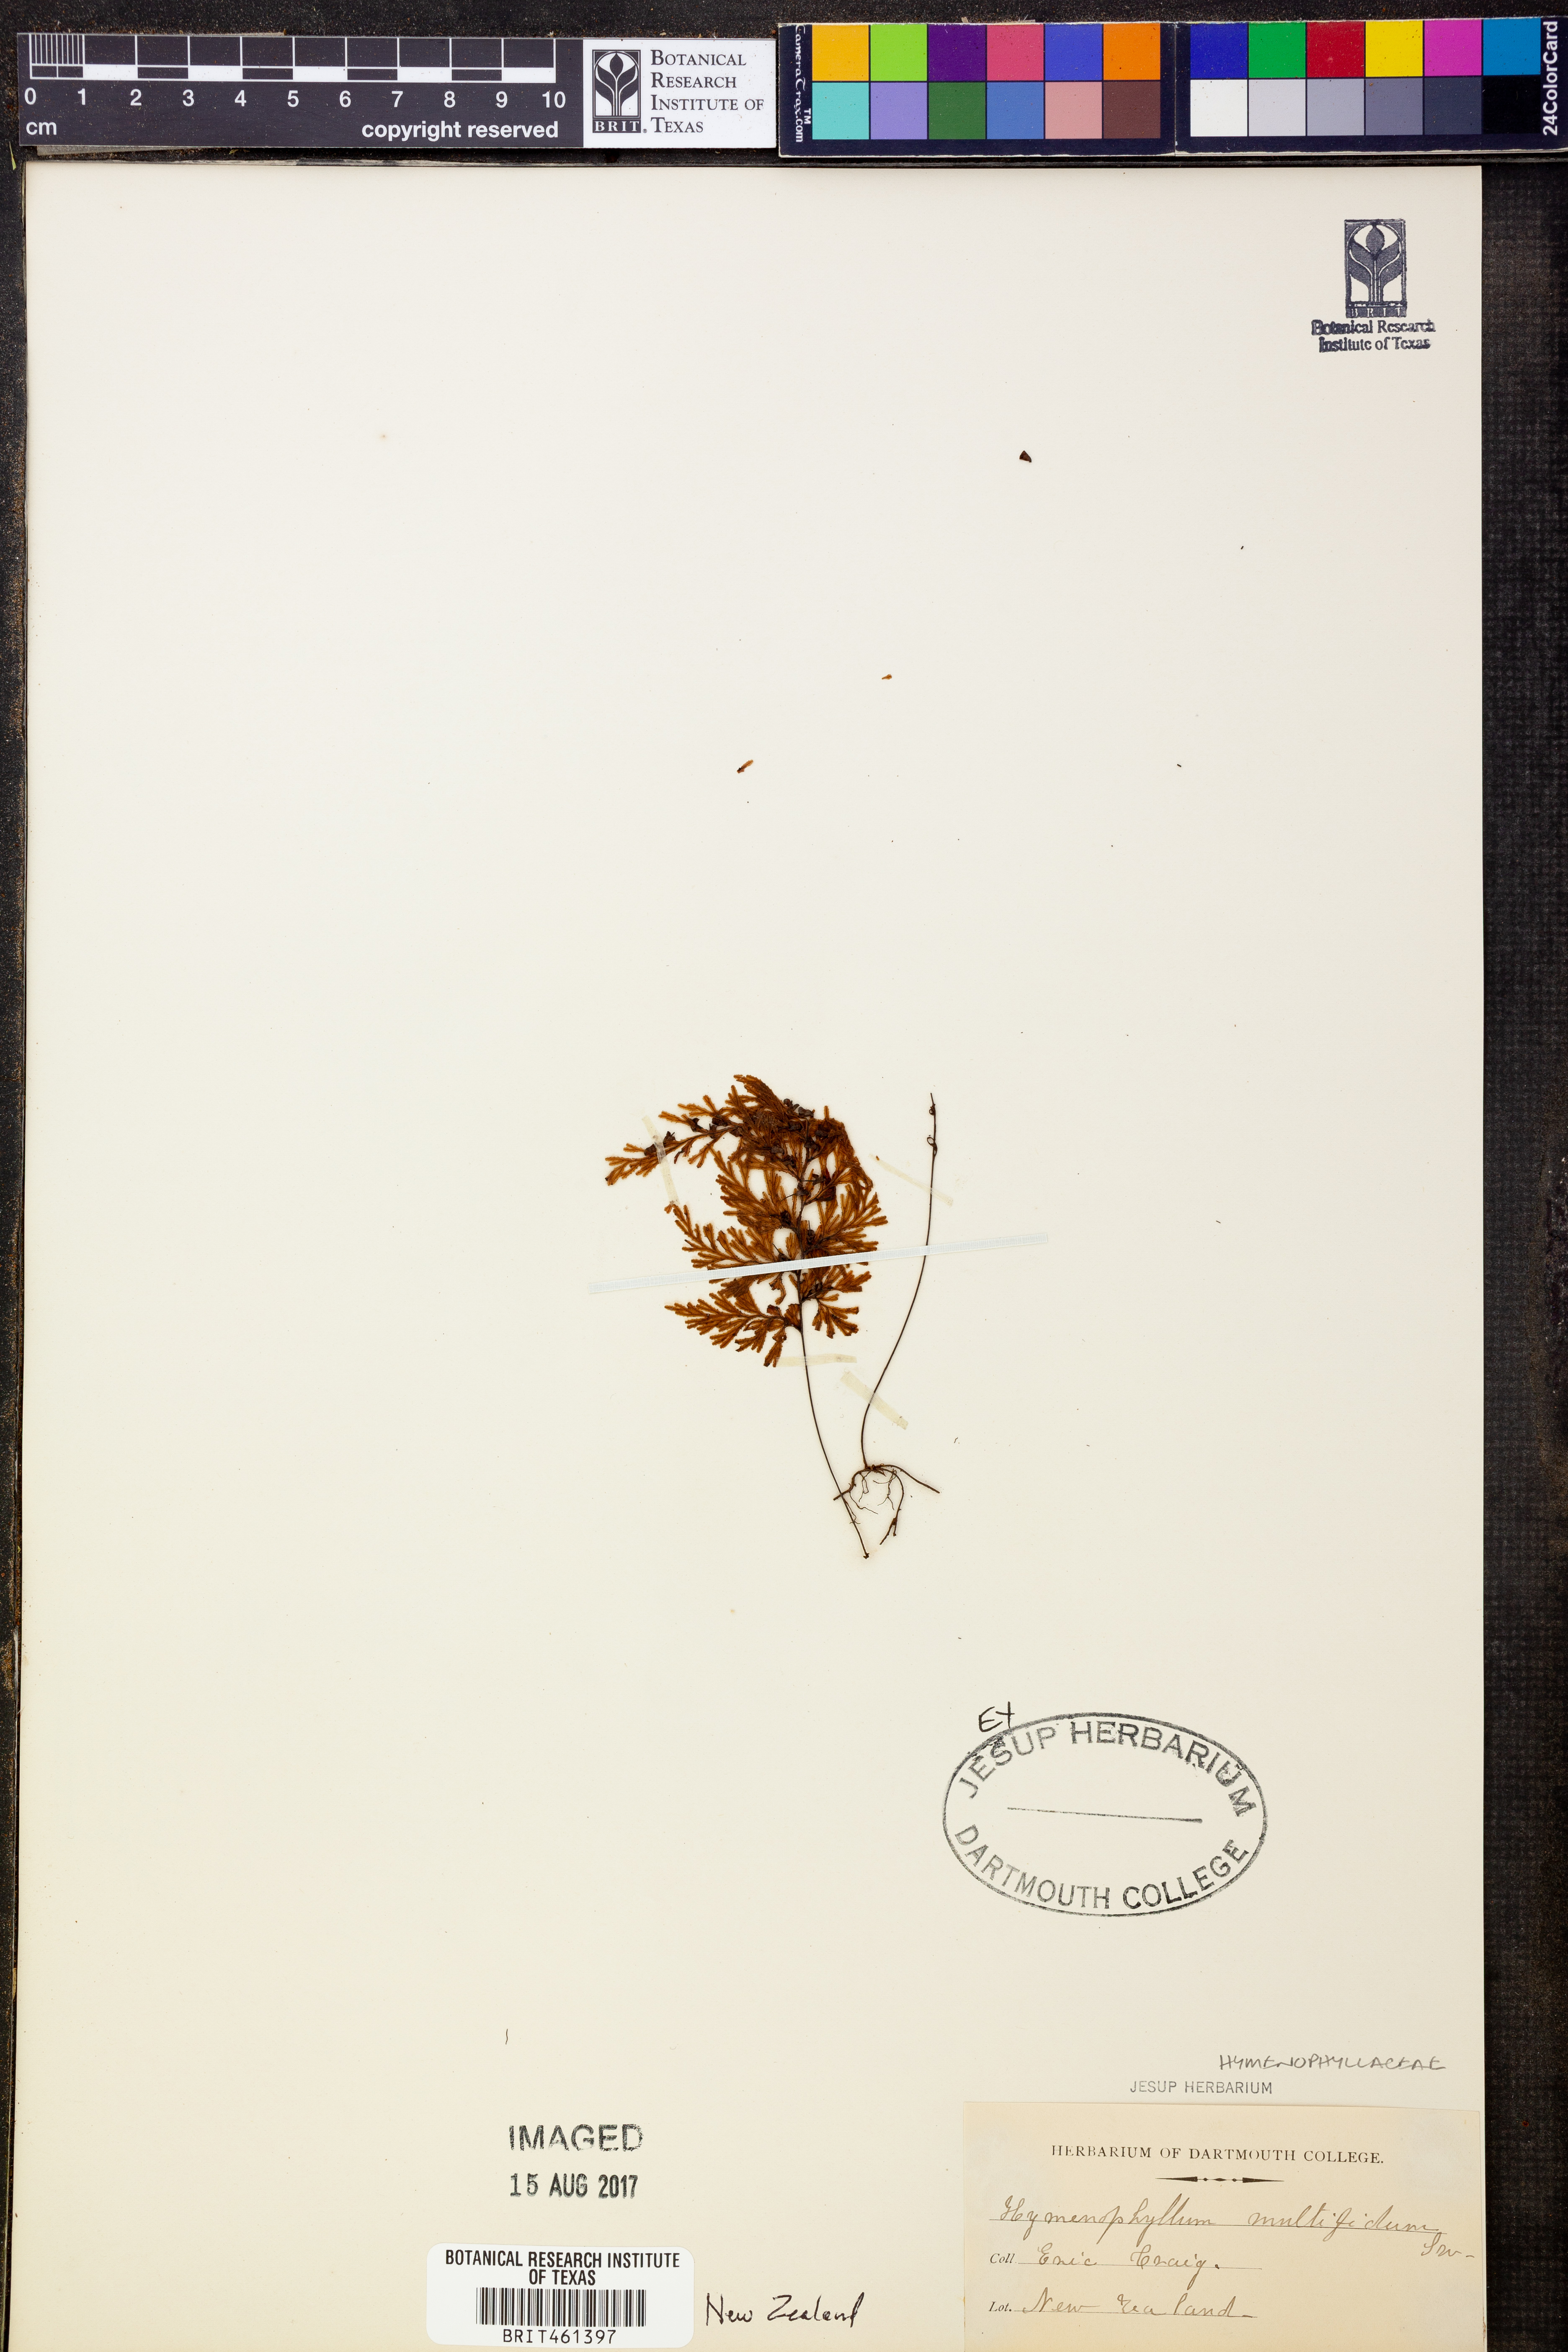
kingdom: Plantae
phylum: Tracheophyta
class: Polypodiopsida
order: Hymenophyllales
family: Hymenophyllaceae
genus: Hymenophyllum
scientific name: Hymenophyllum
